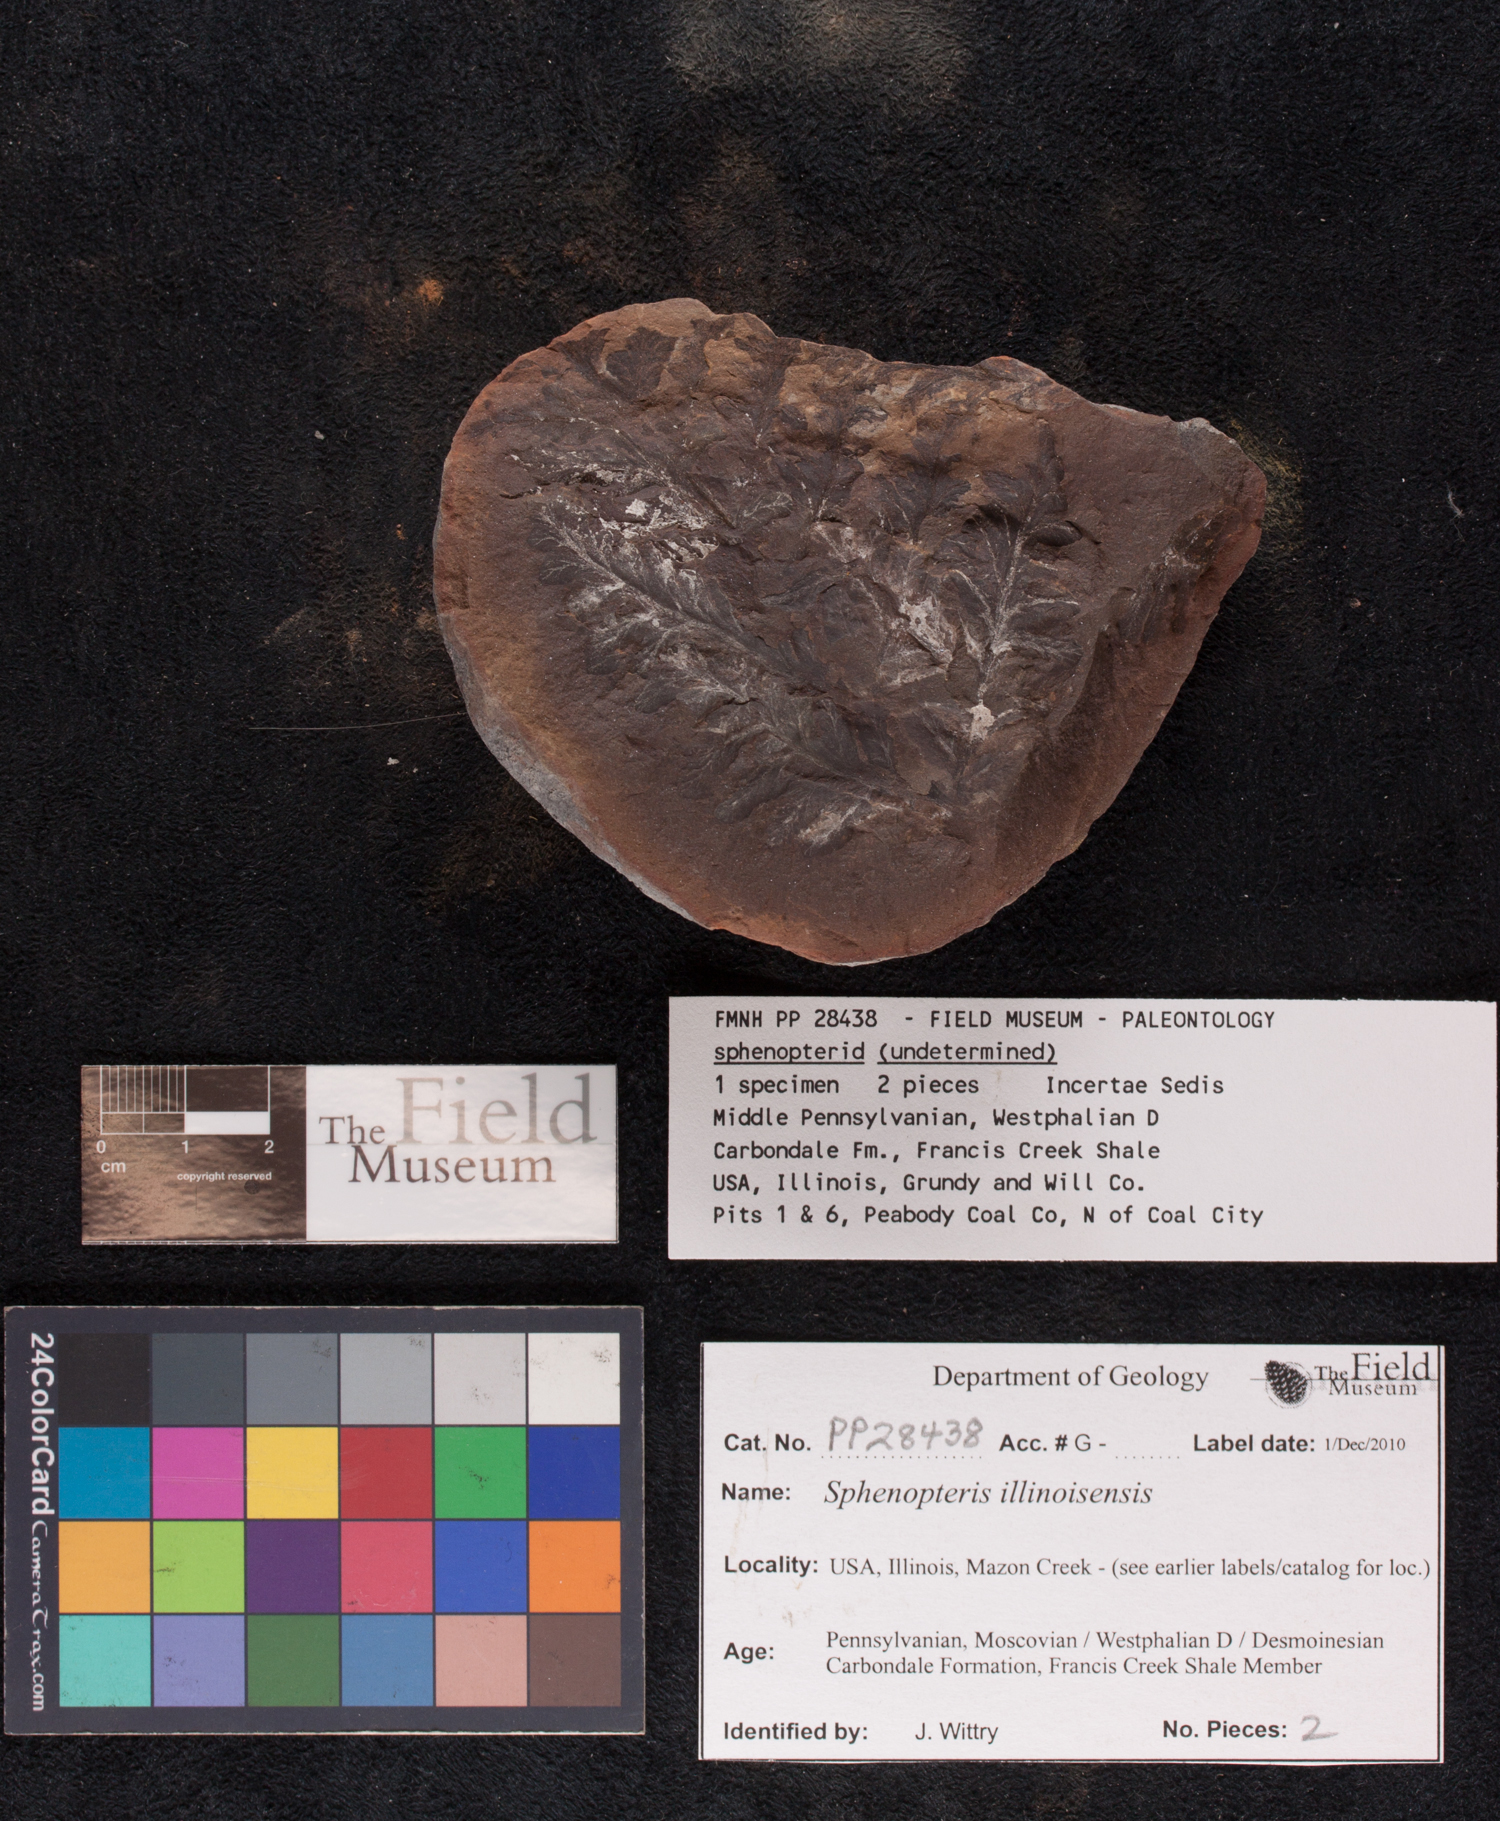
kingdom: Plantae
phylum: Tracheophyta
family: Lyginopteridaceae
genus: Sphenopteris
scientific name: Sphenopteris
